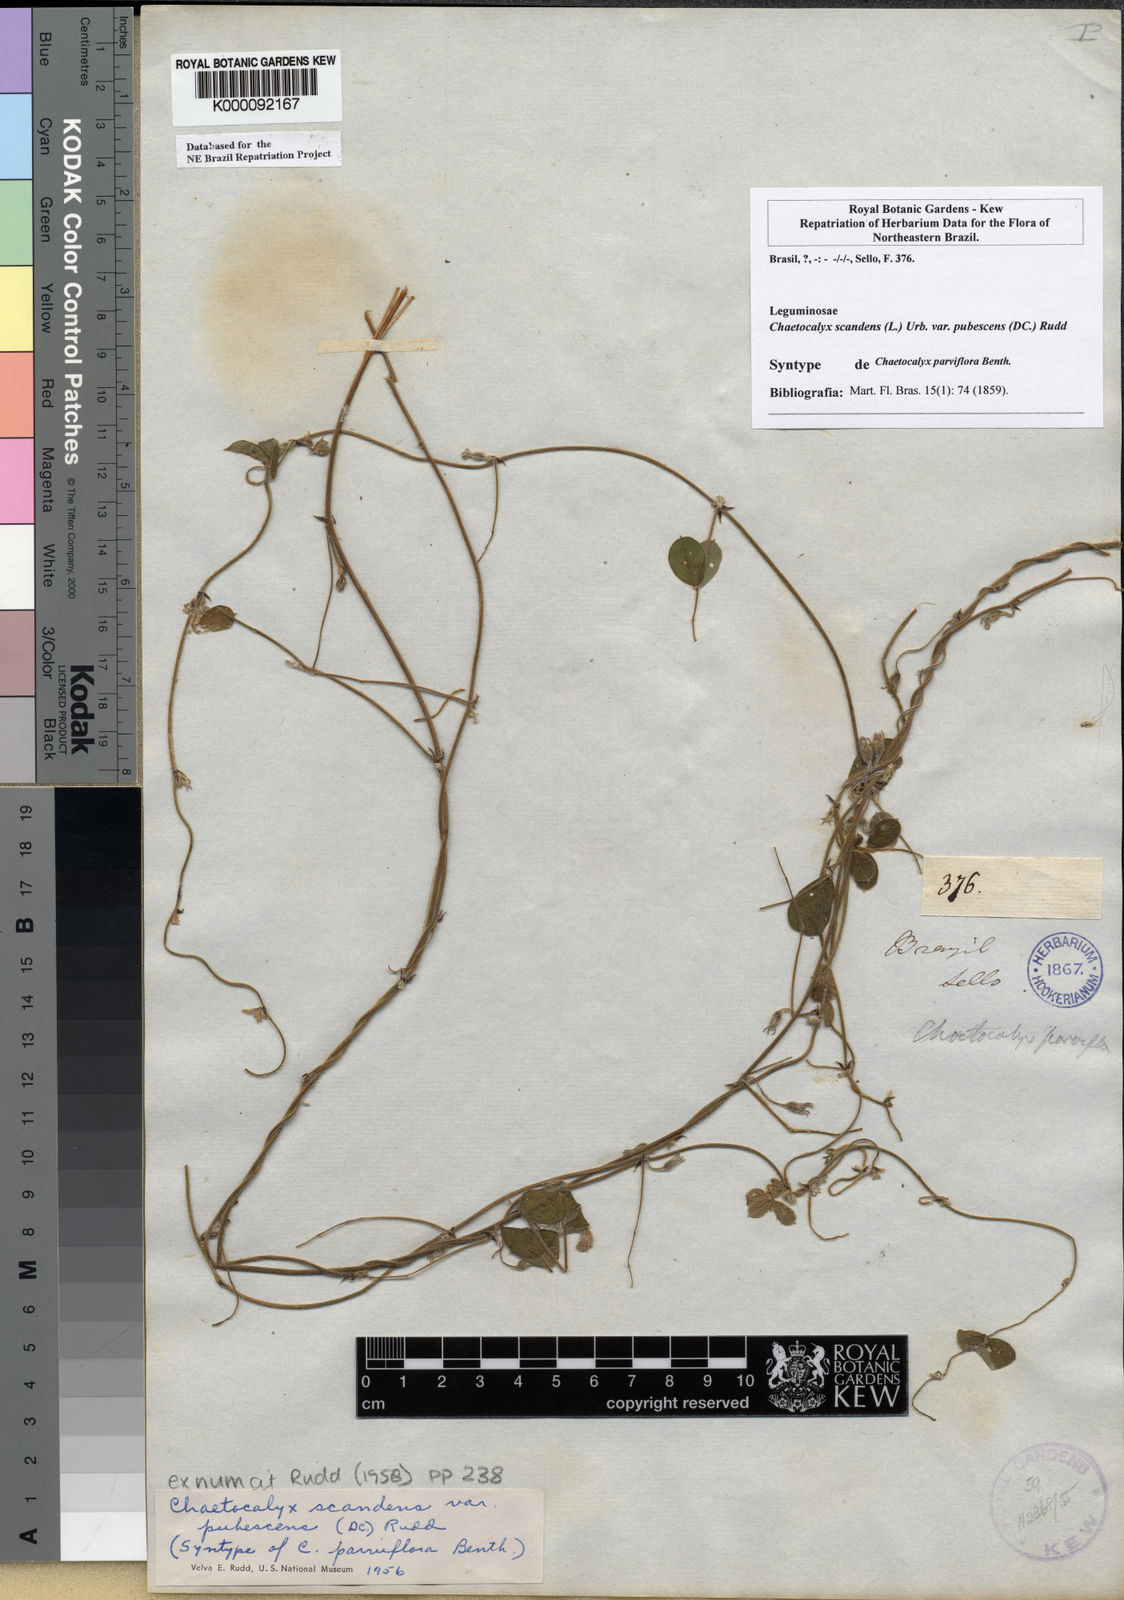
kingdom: Plantae
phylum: Tracheophyta
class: Magnoliopsida
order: Fabales
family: Fabaceae
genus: Nissolia
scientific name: Nissolia vincentina
